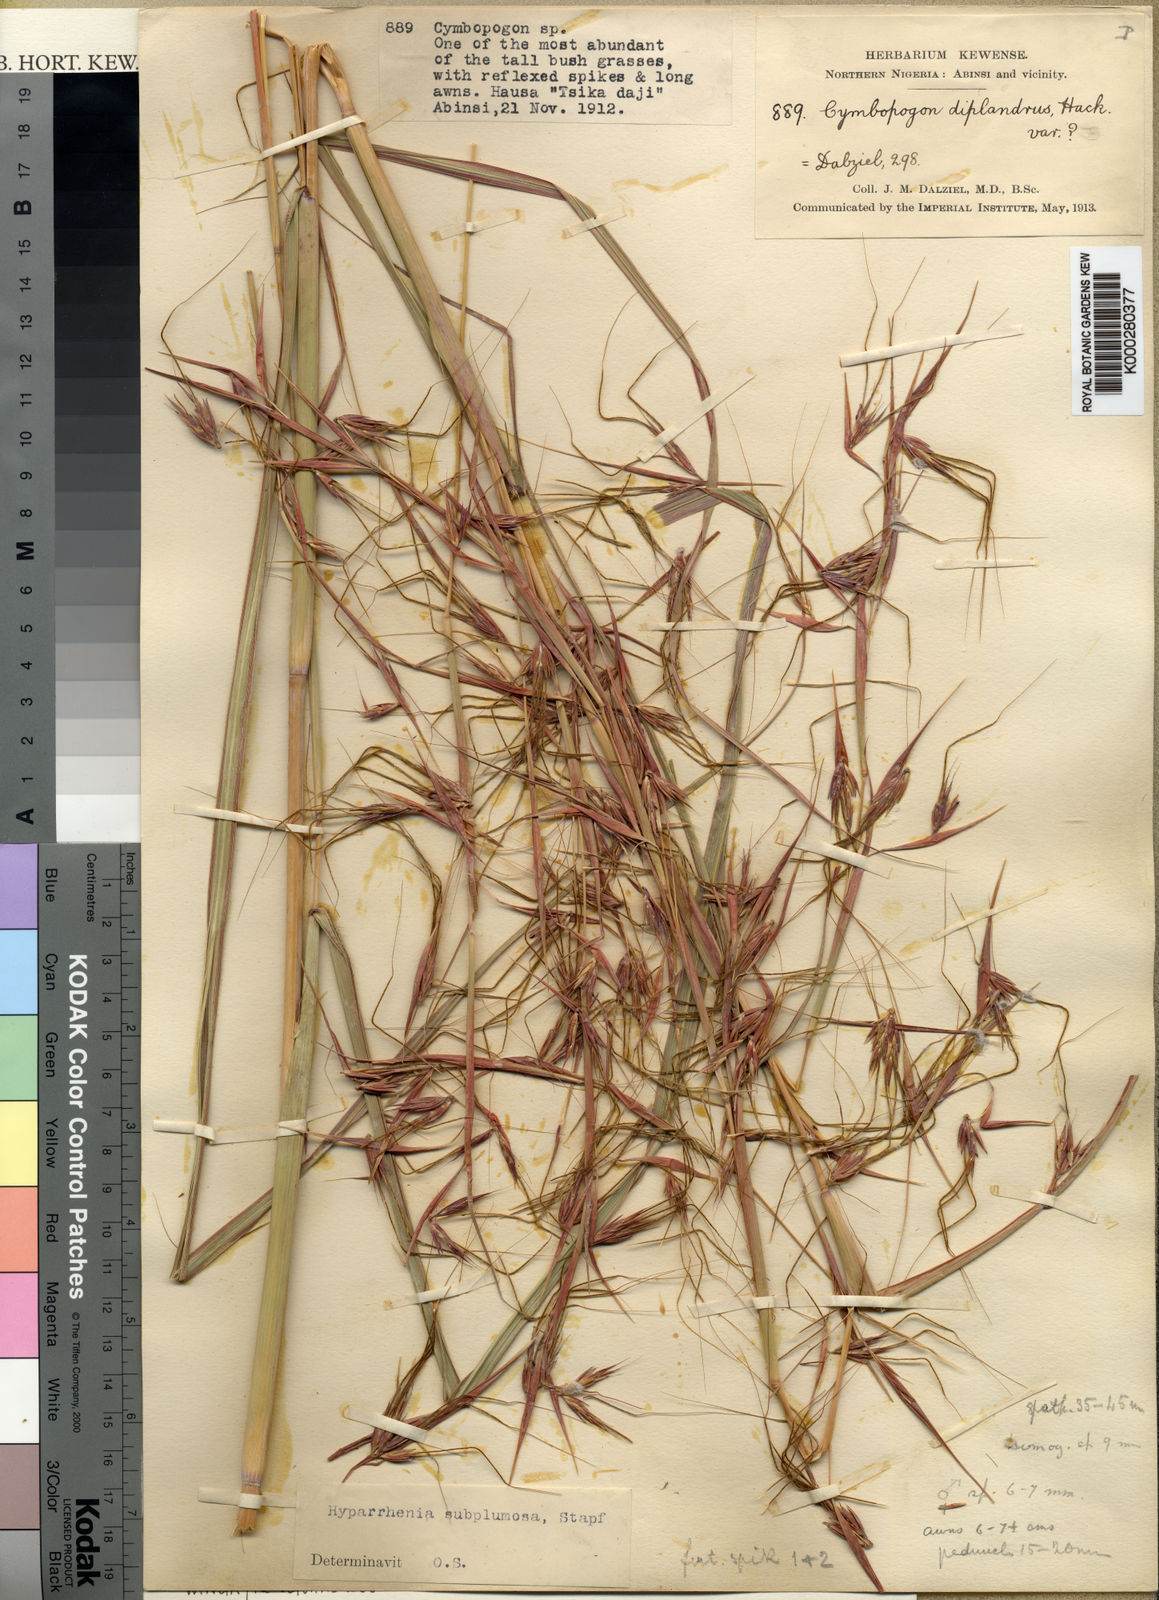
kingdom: Plantae
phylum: Tracheophyta
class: Liliopsida
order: Poales
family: Poaceae
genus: Hyparrhenia
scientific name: Hyparrhenia subplumosa
